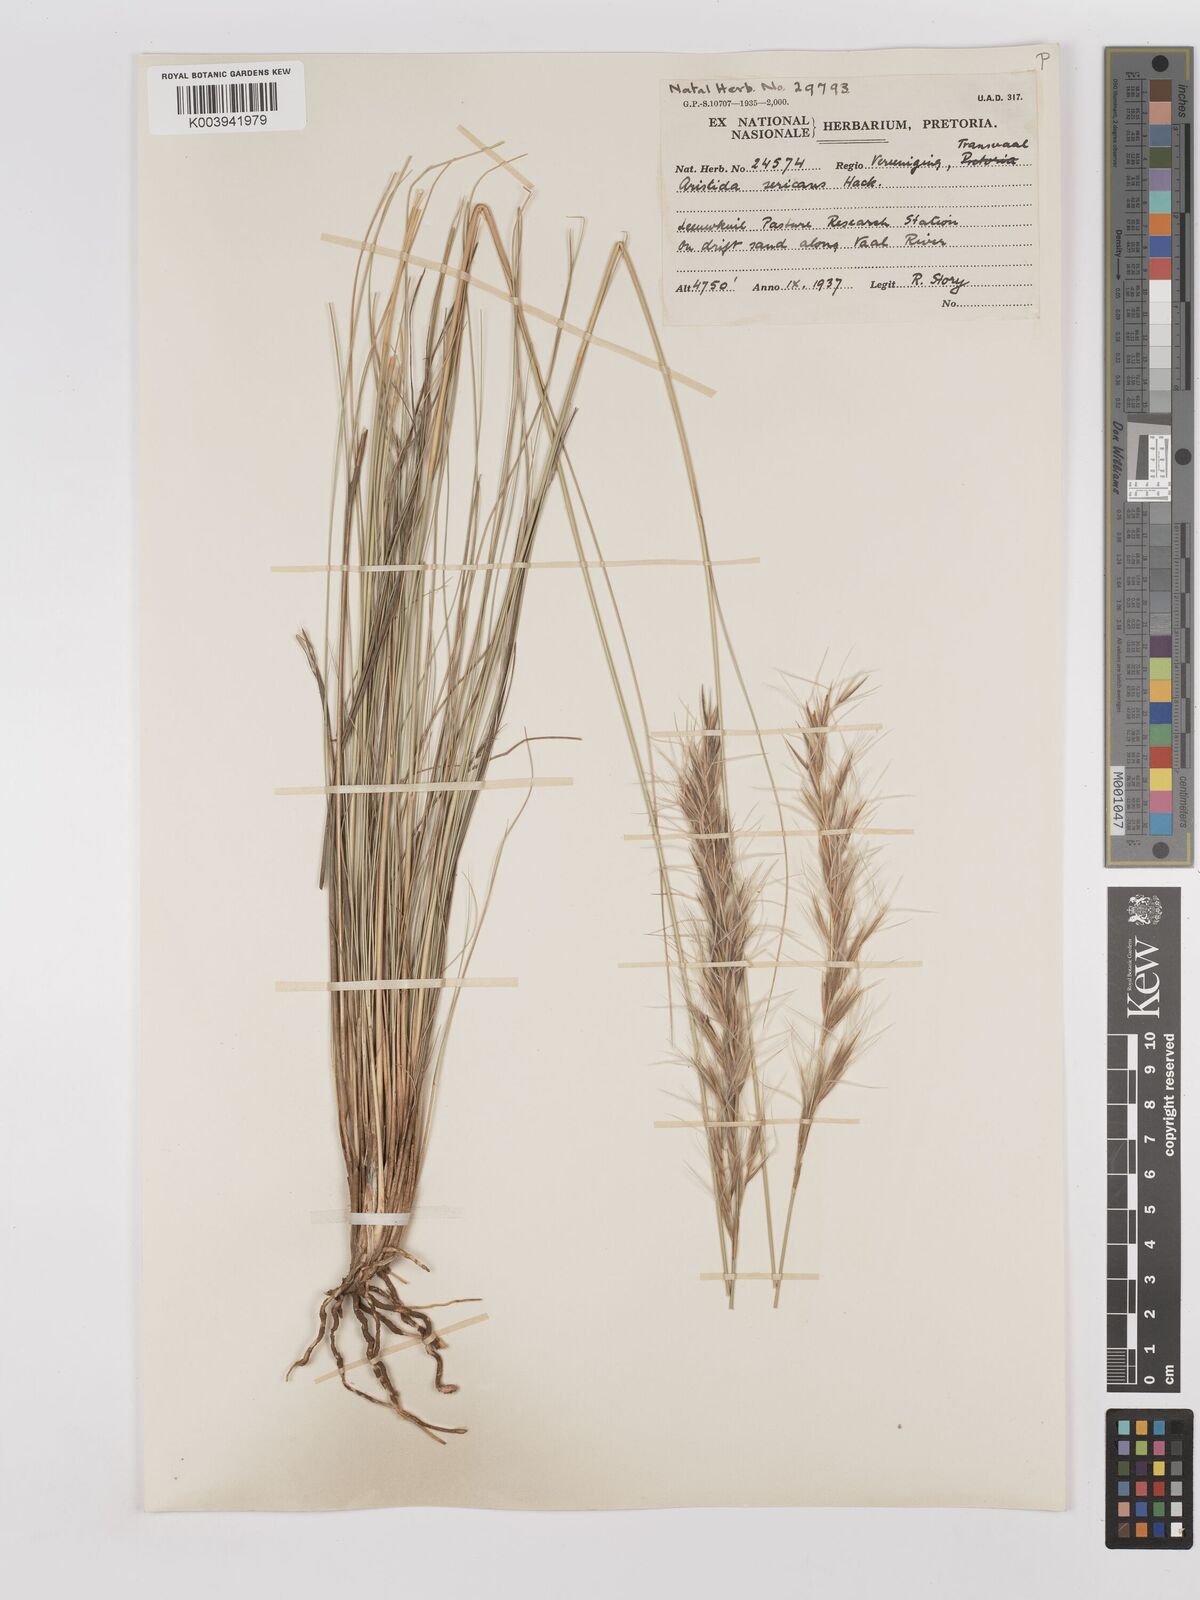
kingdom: Plantae
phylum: Tracheophyta
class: Liliopsida
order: Poales
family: Poaceae
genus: Stipagrostis
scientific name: Stipagrostis zeyheri
